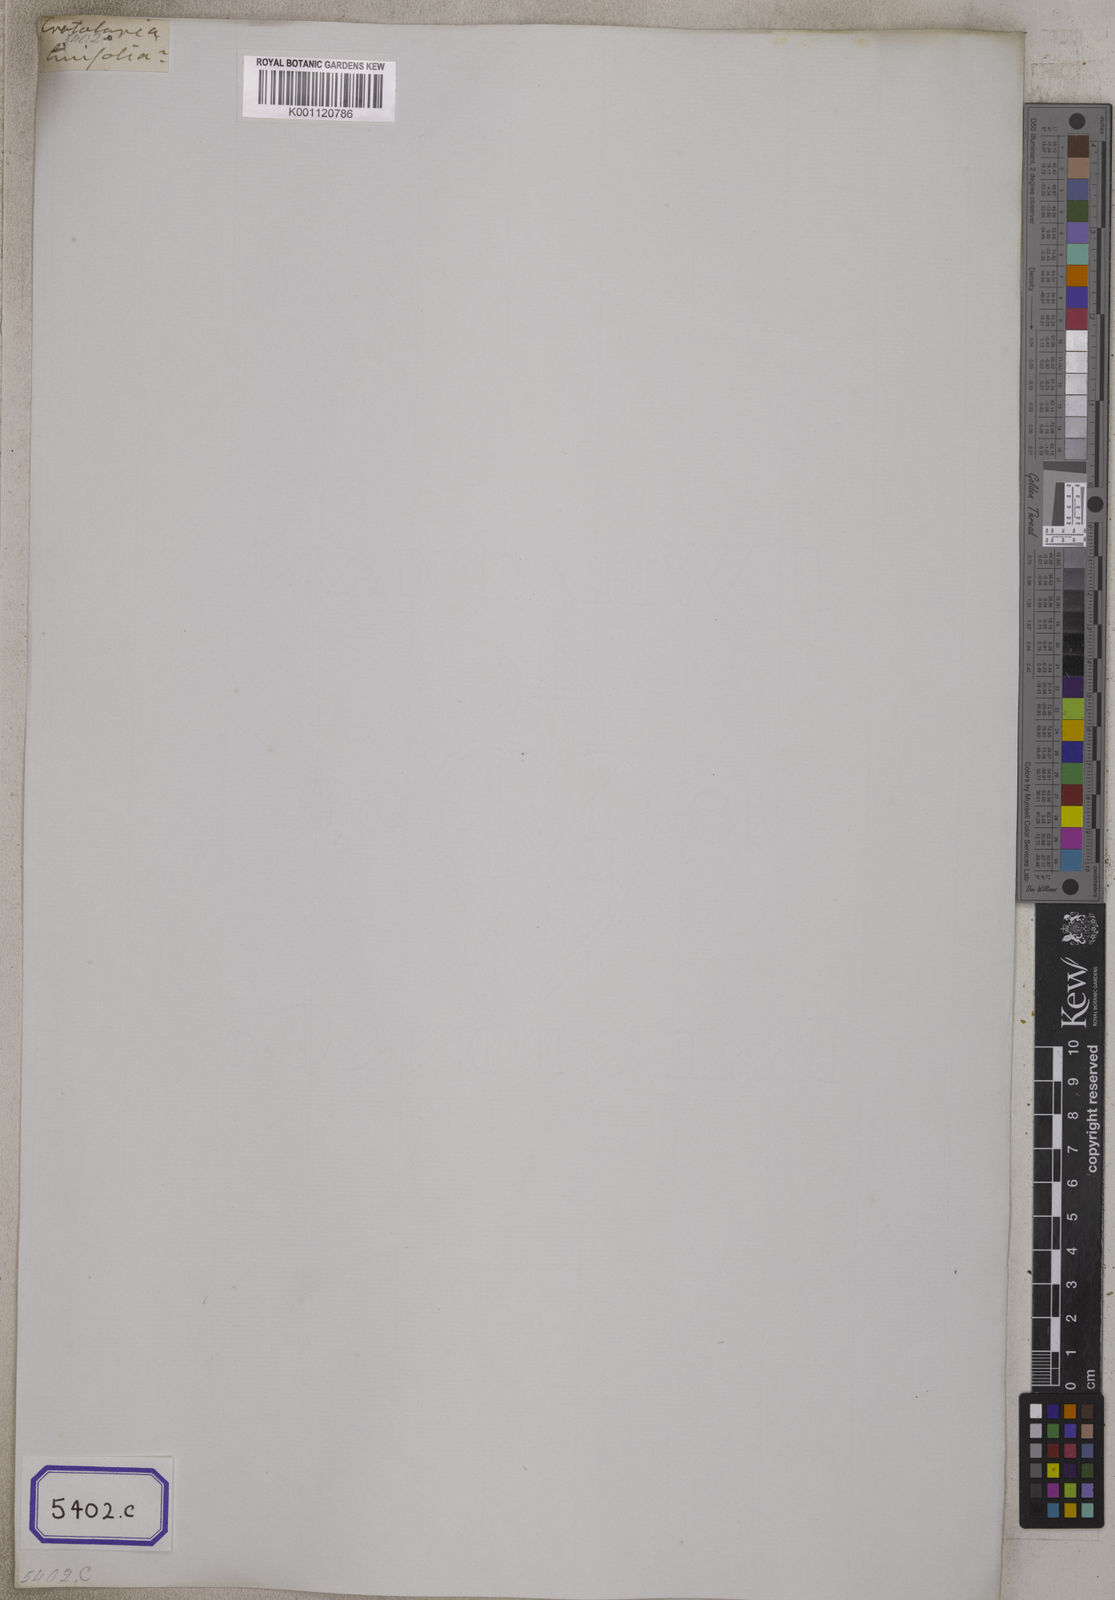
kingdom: Plantae
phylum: Tracheophyta
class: Magnoliopsida
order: Fabales
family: Fabaceae
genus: Crotalaria
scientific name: Crotalaria albida
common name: Taiwan crotalaria
